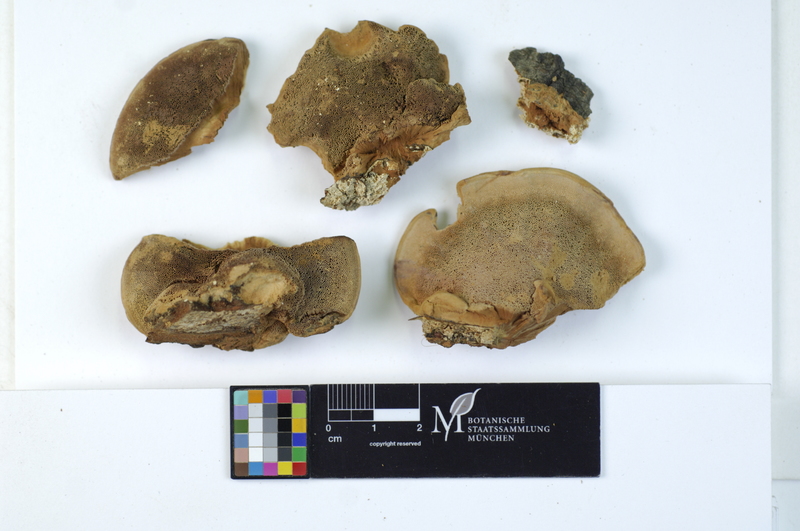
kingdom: Plantae
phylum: Tracheophyta
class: Magnoliopsida
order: Fagales
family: Fagaceae
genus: Fagus
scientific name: Fagus sylvatica
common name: Beech
